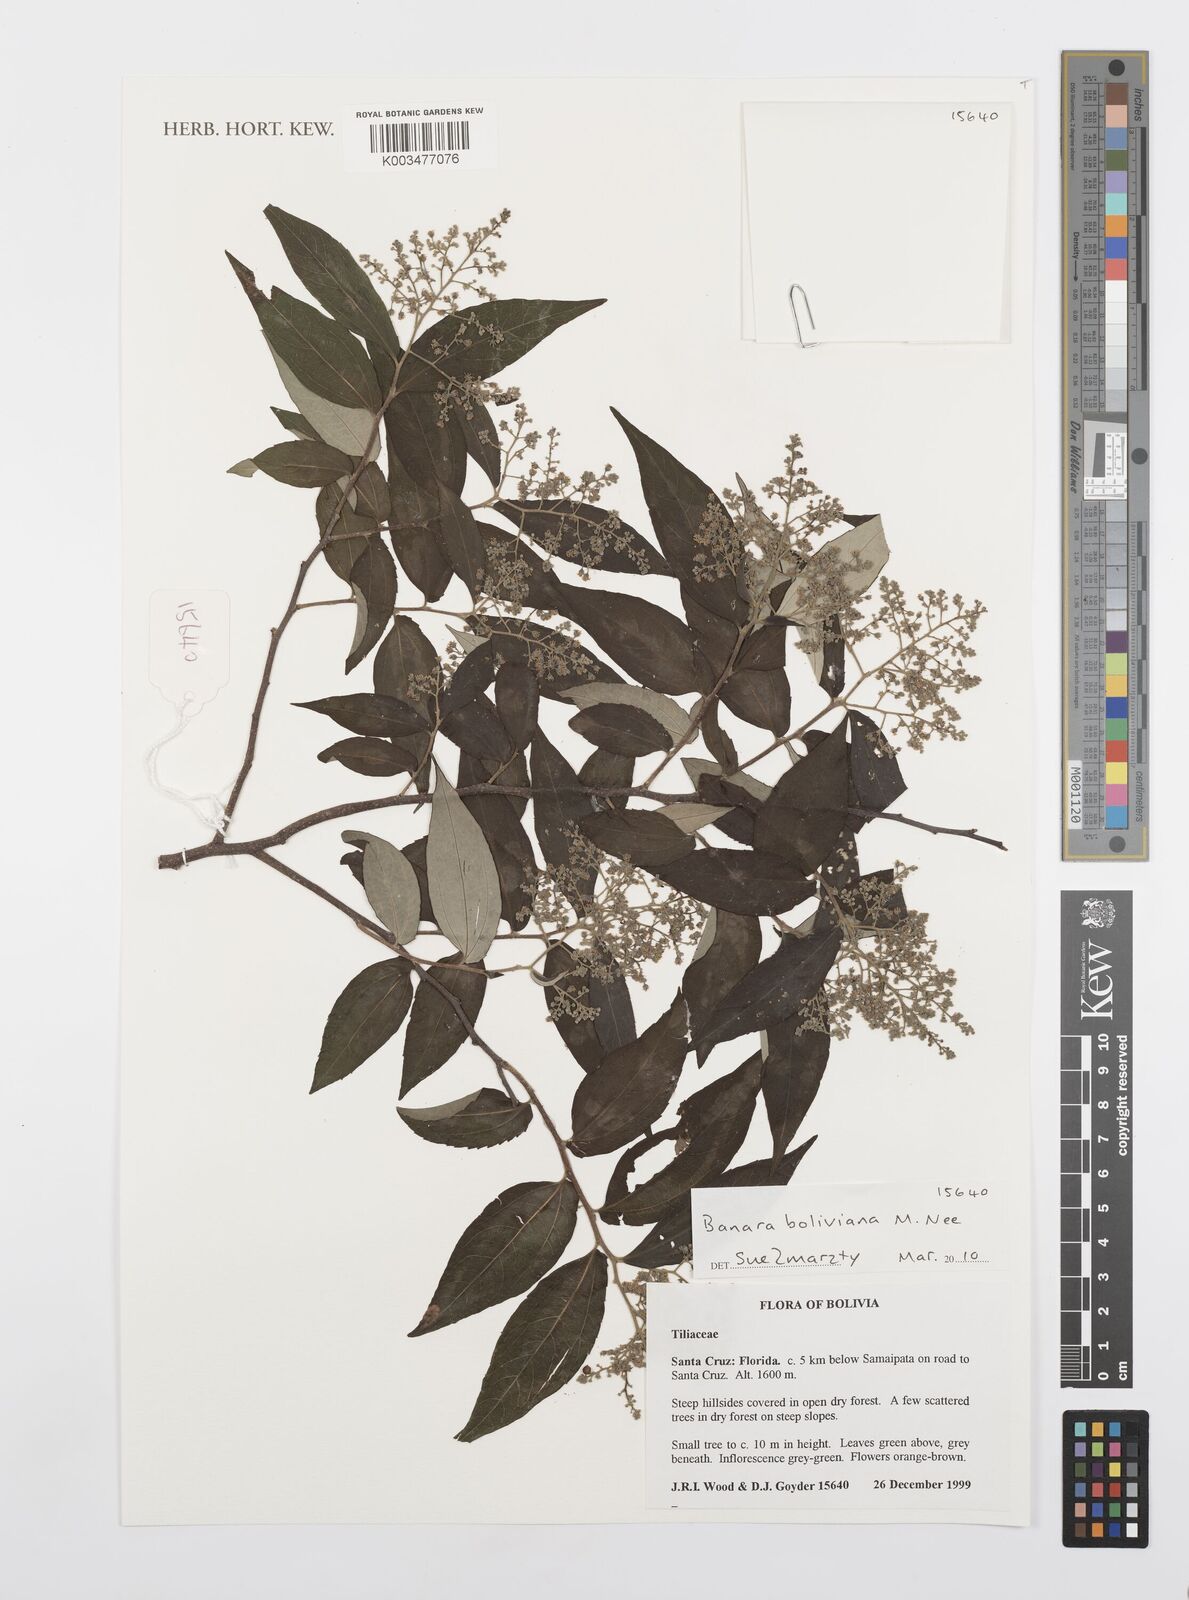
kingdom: Plantae
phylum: Tracheophyta
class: Magnoliopsida
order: Malpighiales
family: Salicaceae
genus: Banara
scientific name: Banara boliviana
